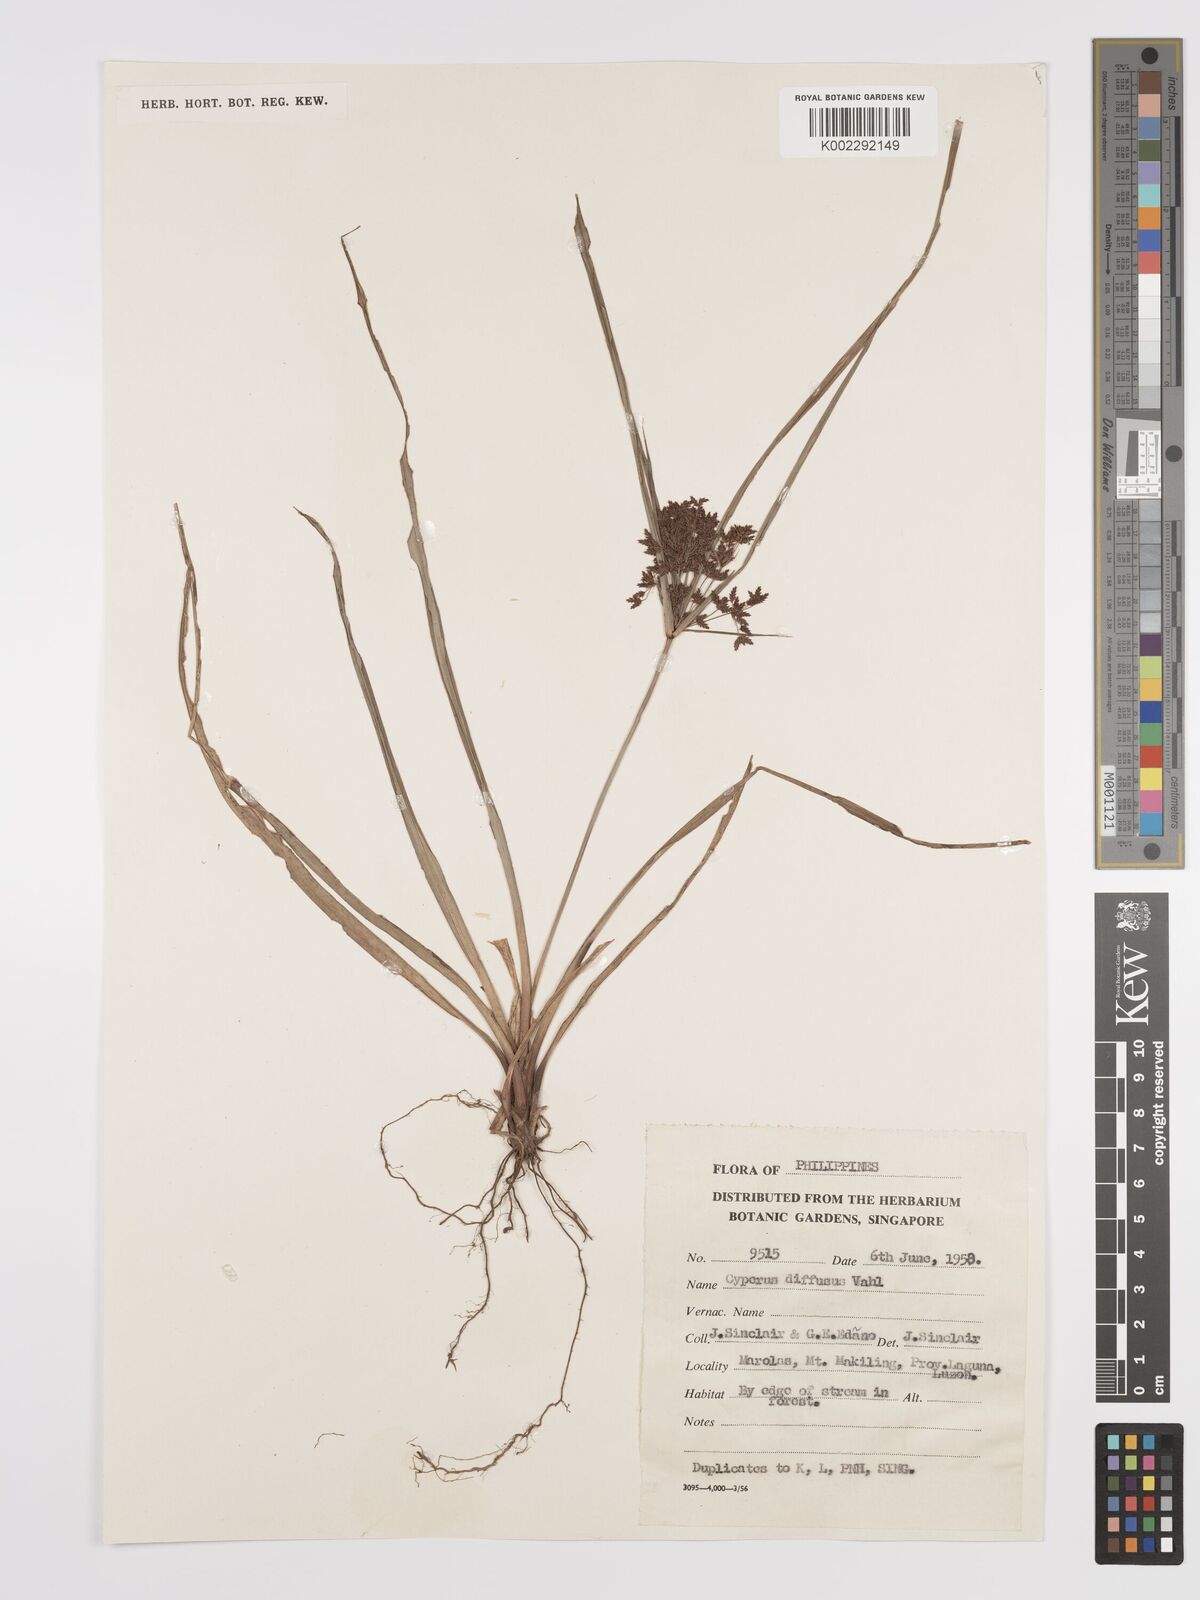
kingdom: Plantae
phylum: Tracheophyta
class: Liliopsida
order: Poales
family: Cyperaceae
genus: Cyperus
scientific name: Cyperus diffusus
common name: Dwarf umbrella grass
